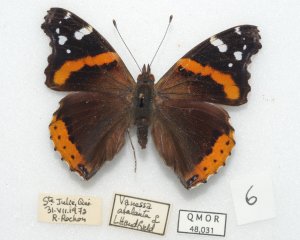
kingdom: Animalia
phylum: Arthropoda
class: Insecta
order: Lepidoptera
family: Nymphalidae
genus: Vanessa
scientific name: Vanessa atalanta
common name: Red Admiral
